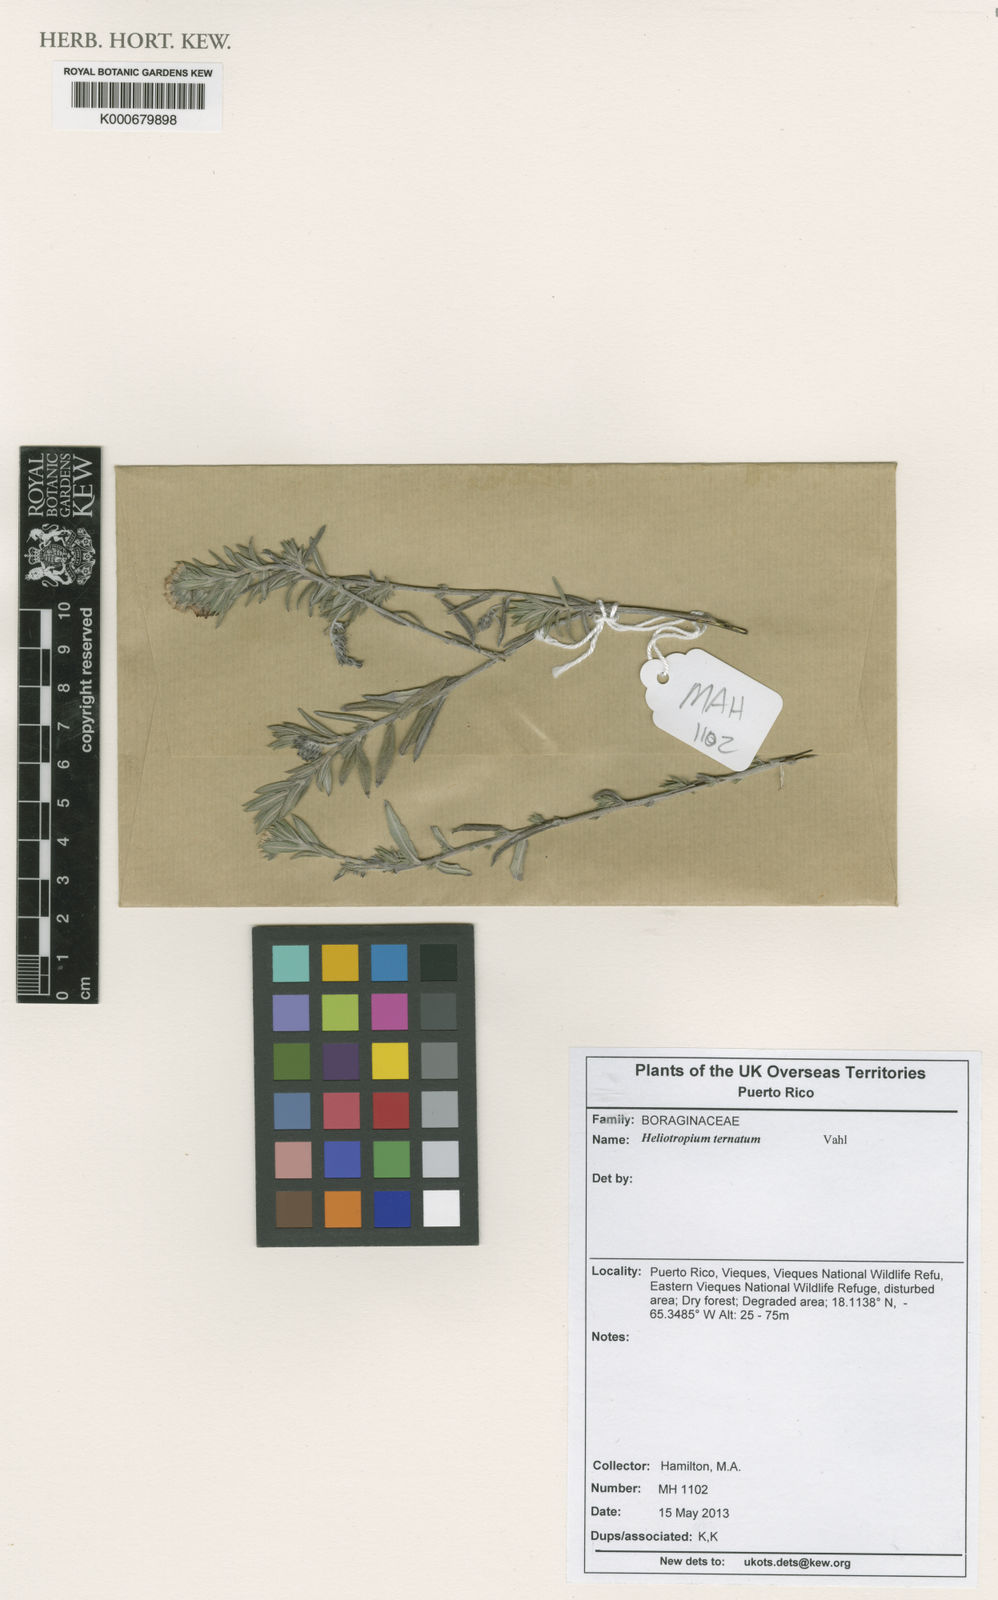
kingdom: Plantae
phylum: Tracheophyta
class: Magnoliopsida
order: Boraginales
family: Heliotropiaceae
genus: Euploca
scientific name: Euploca humilis
